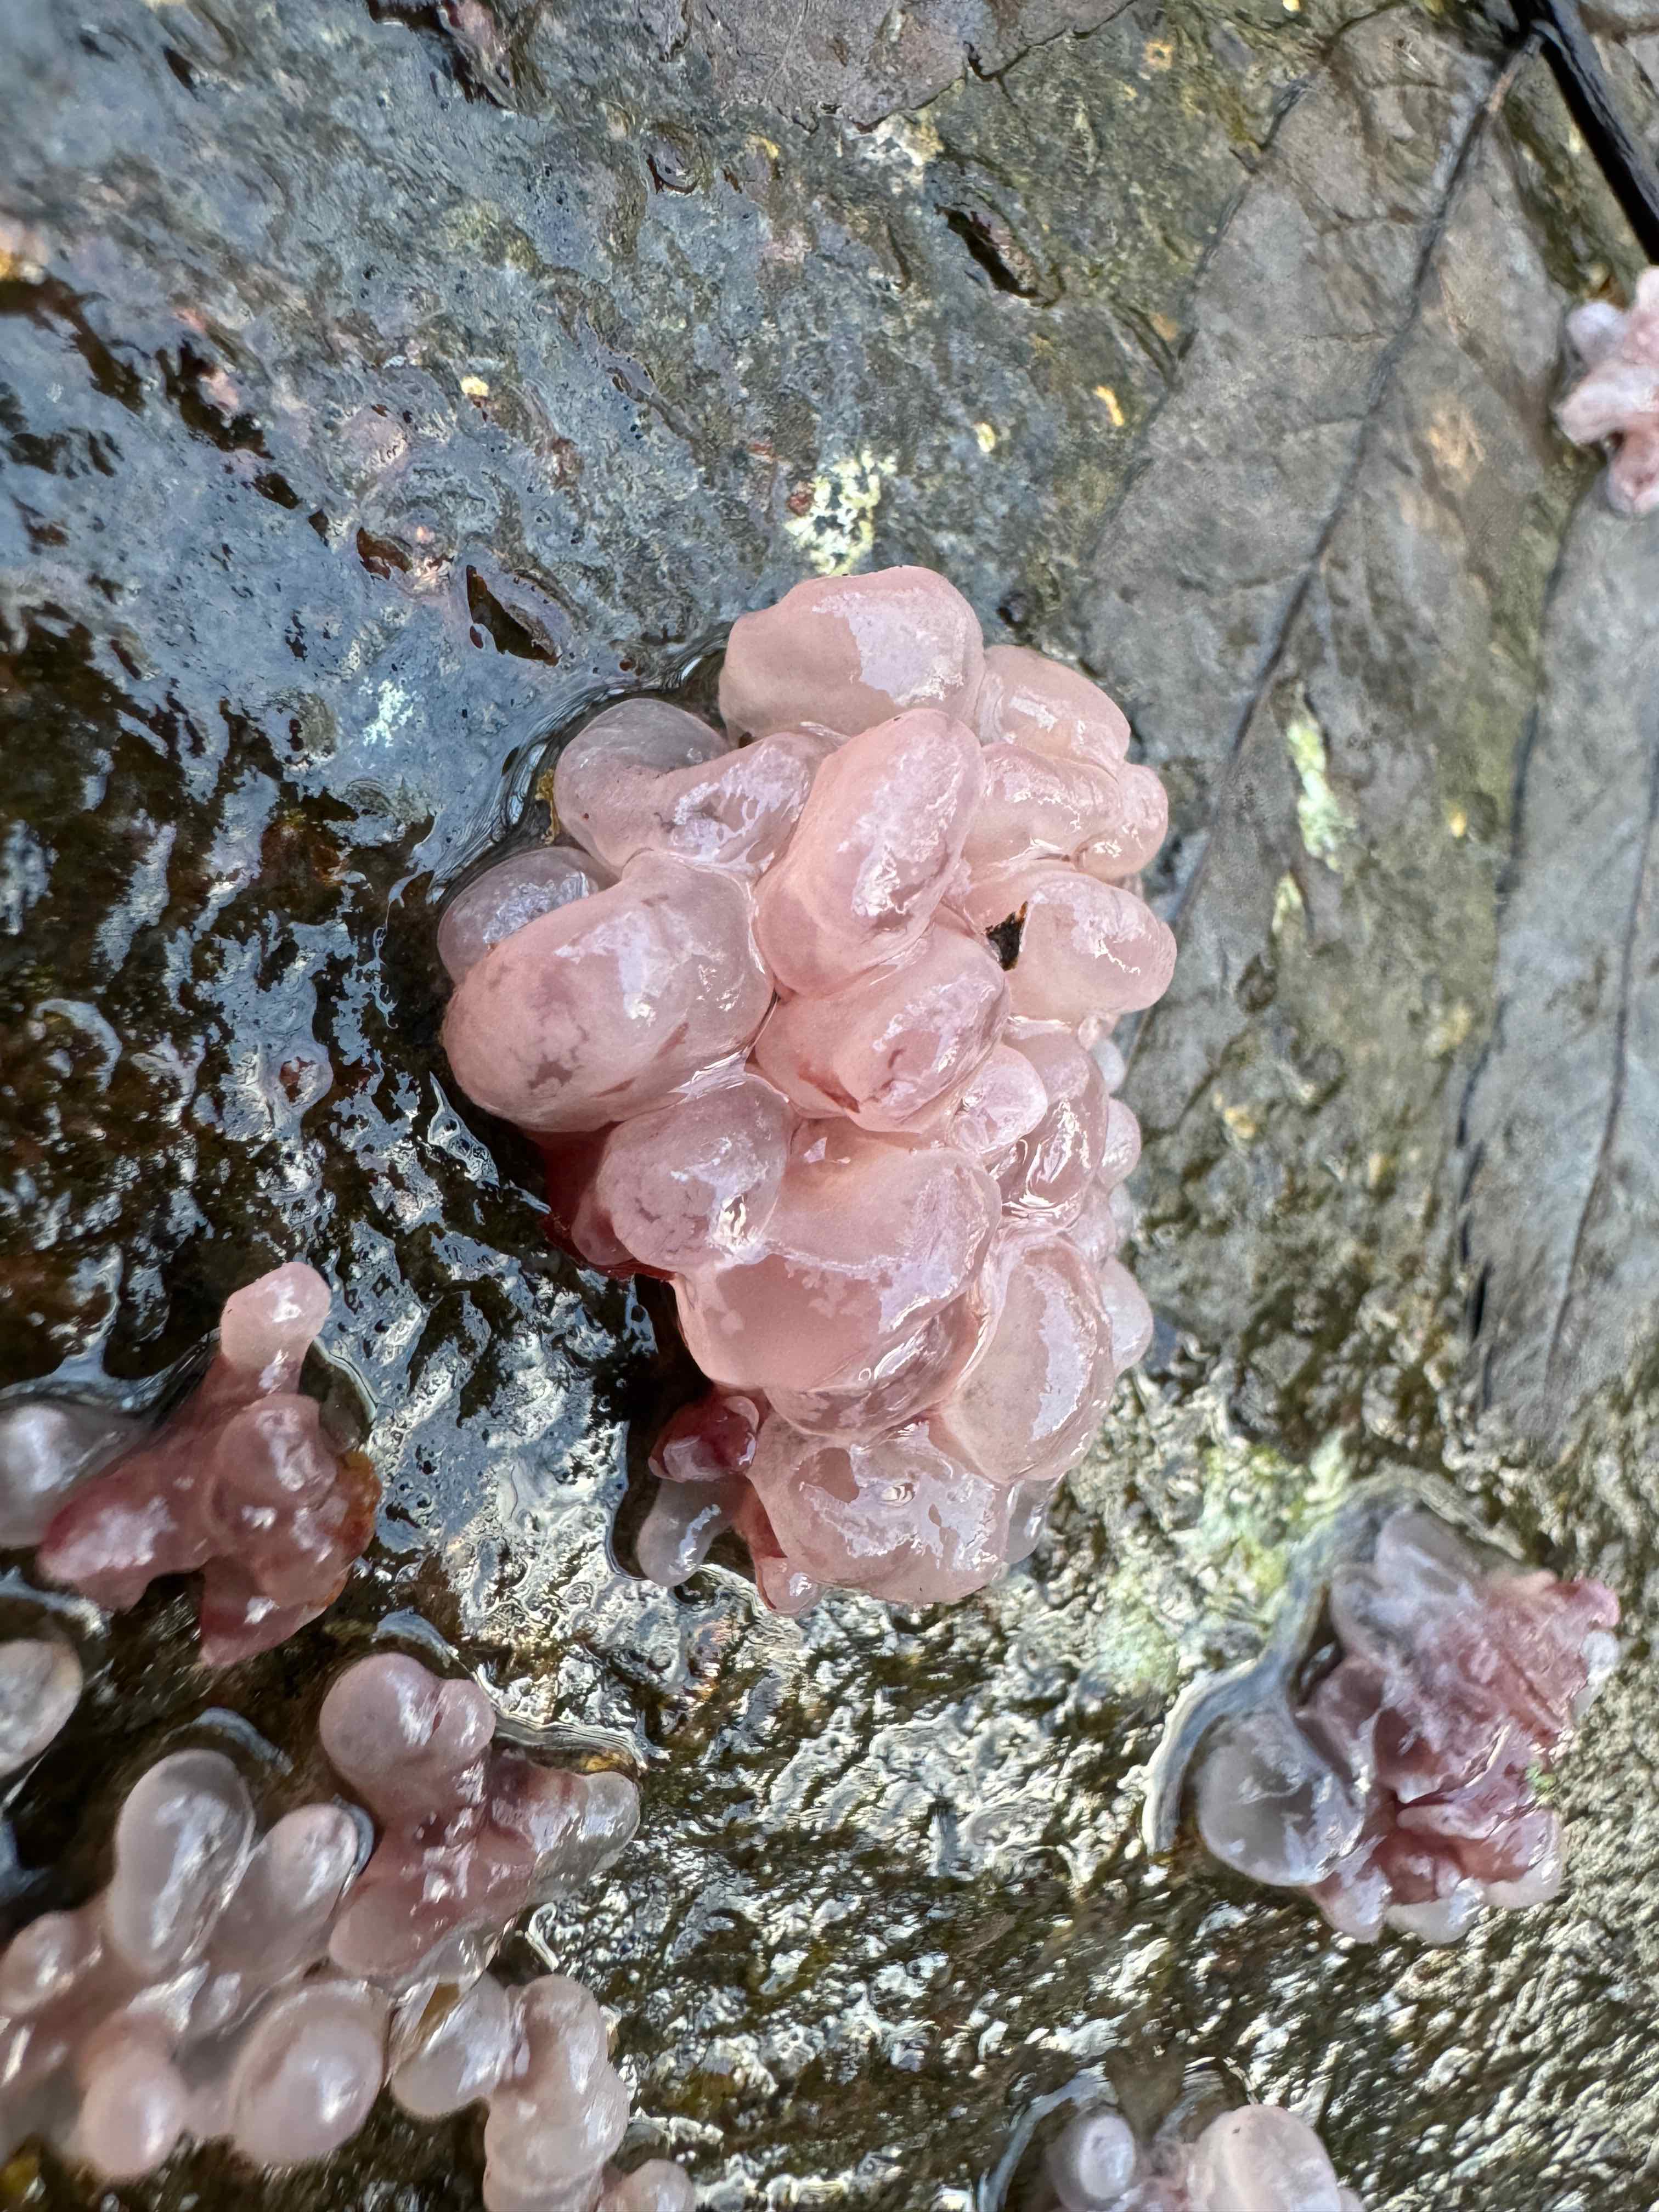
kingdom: Fungi
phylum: Ascomycota
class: Leotiomycetes
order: Helotiales
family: Gelatinodiscaceae
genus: Ascocoryne
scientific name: Ascocoryne sarcoides
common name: rødlilla sejskive
